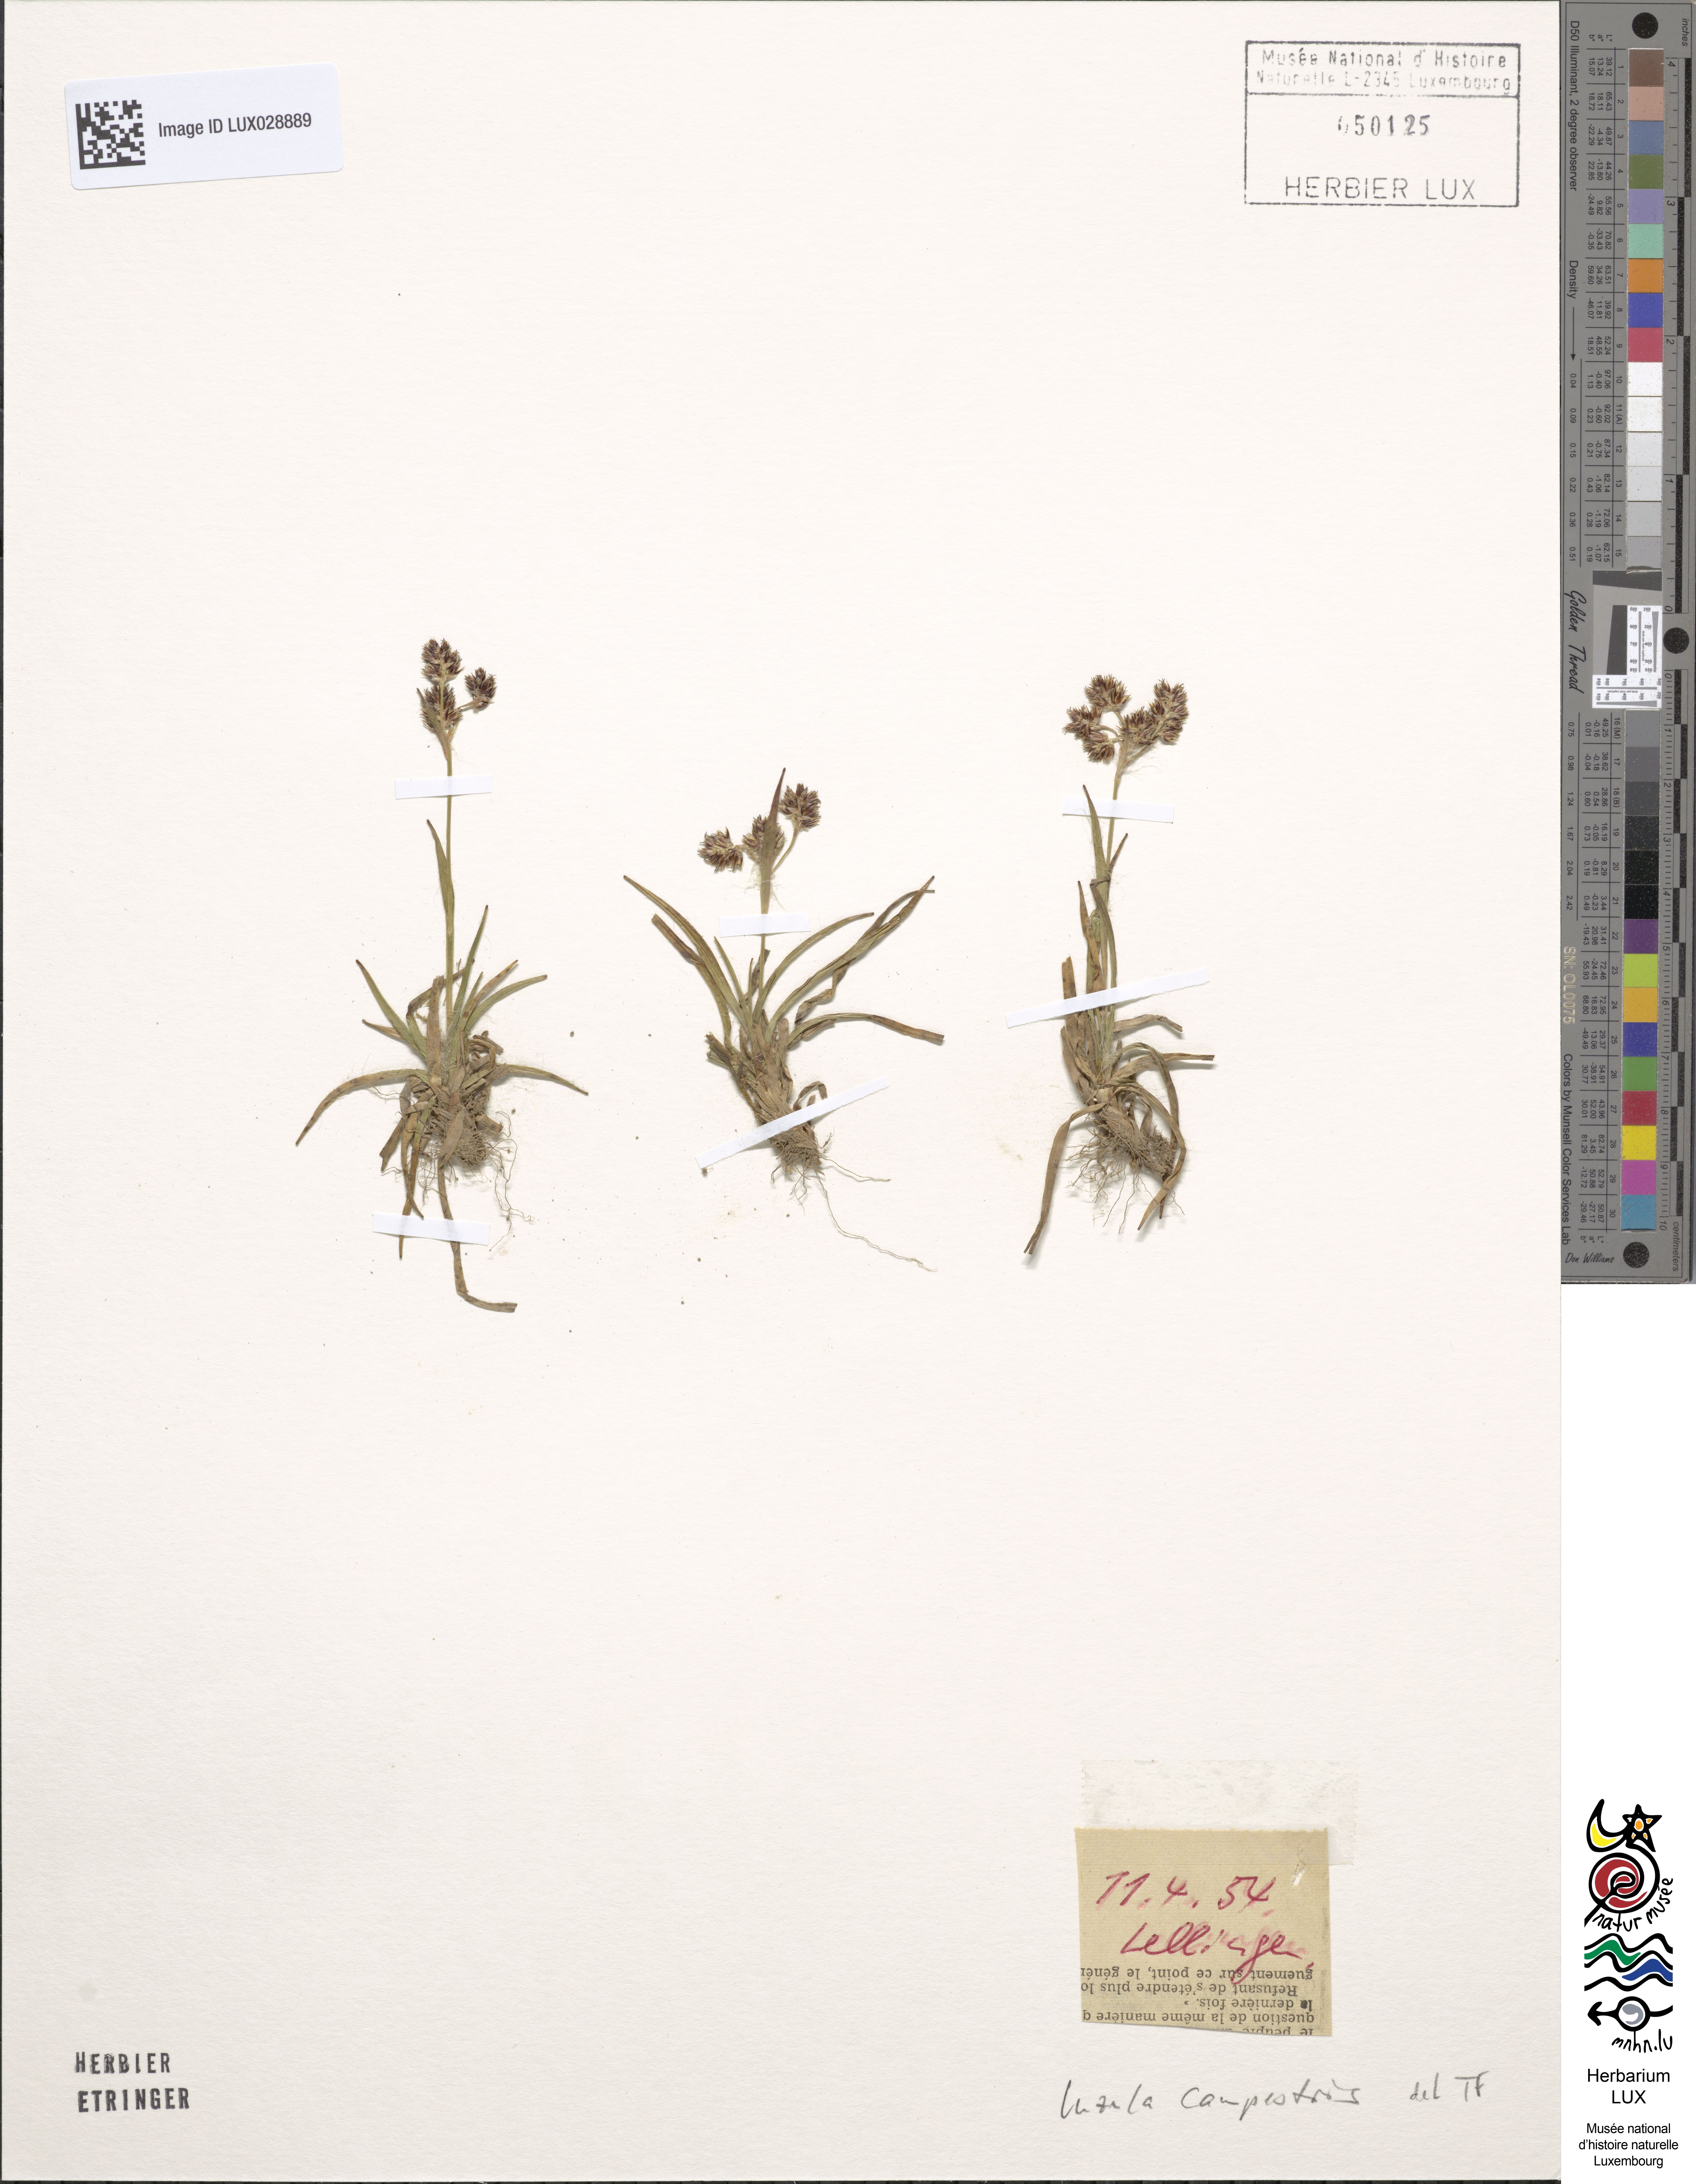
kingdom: Plantae
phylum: Tracheophyta
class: Liliopsida
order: Poales
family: Juncaceae
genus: Luzula
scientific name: Luzula campestris
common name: Field wood-rush
